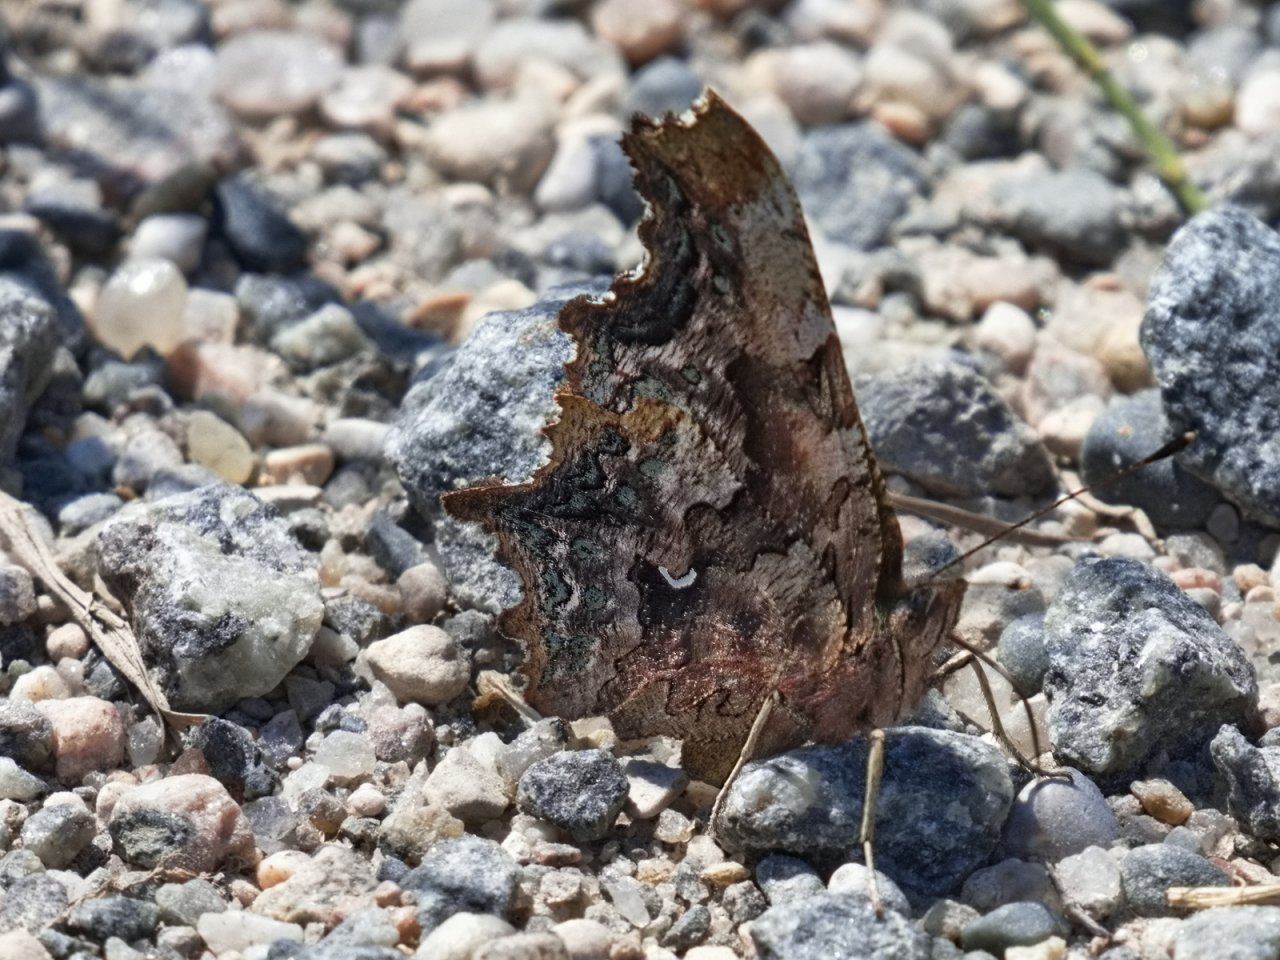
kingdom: Animalia
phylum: Arthropoda
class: Insecta
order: Lepidoptera
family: Nymphalidae
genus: Polygonia
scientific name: Polygonia faunus
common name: Green Comma
